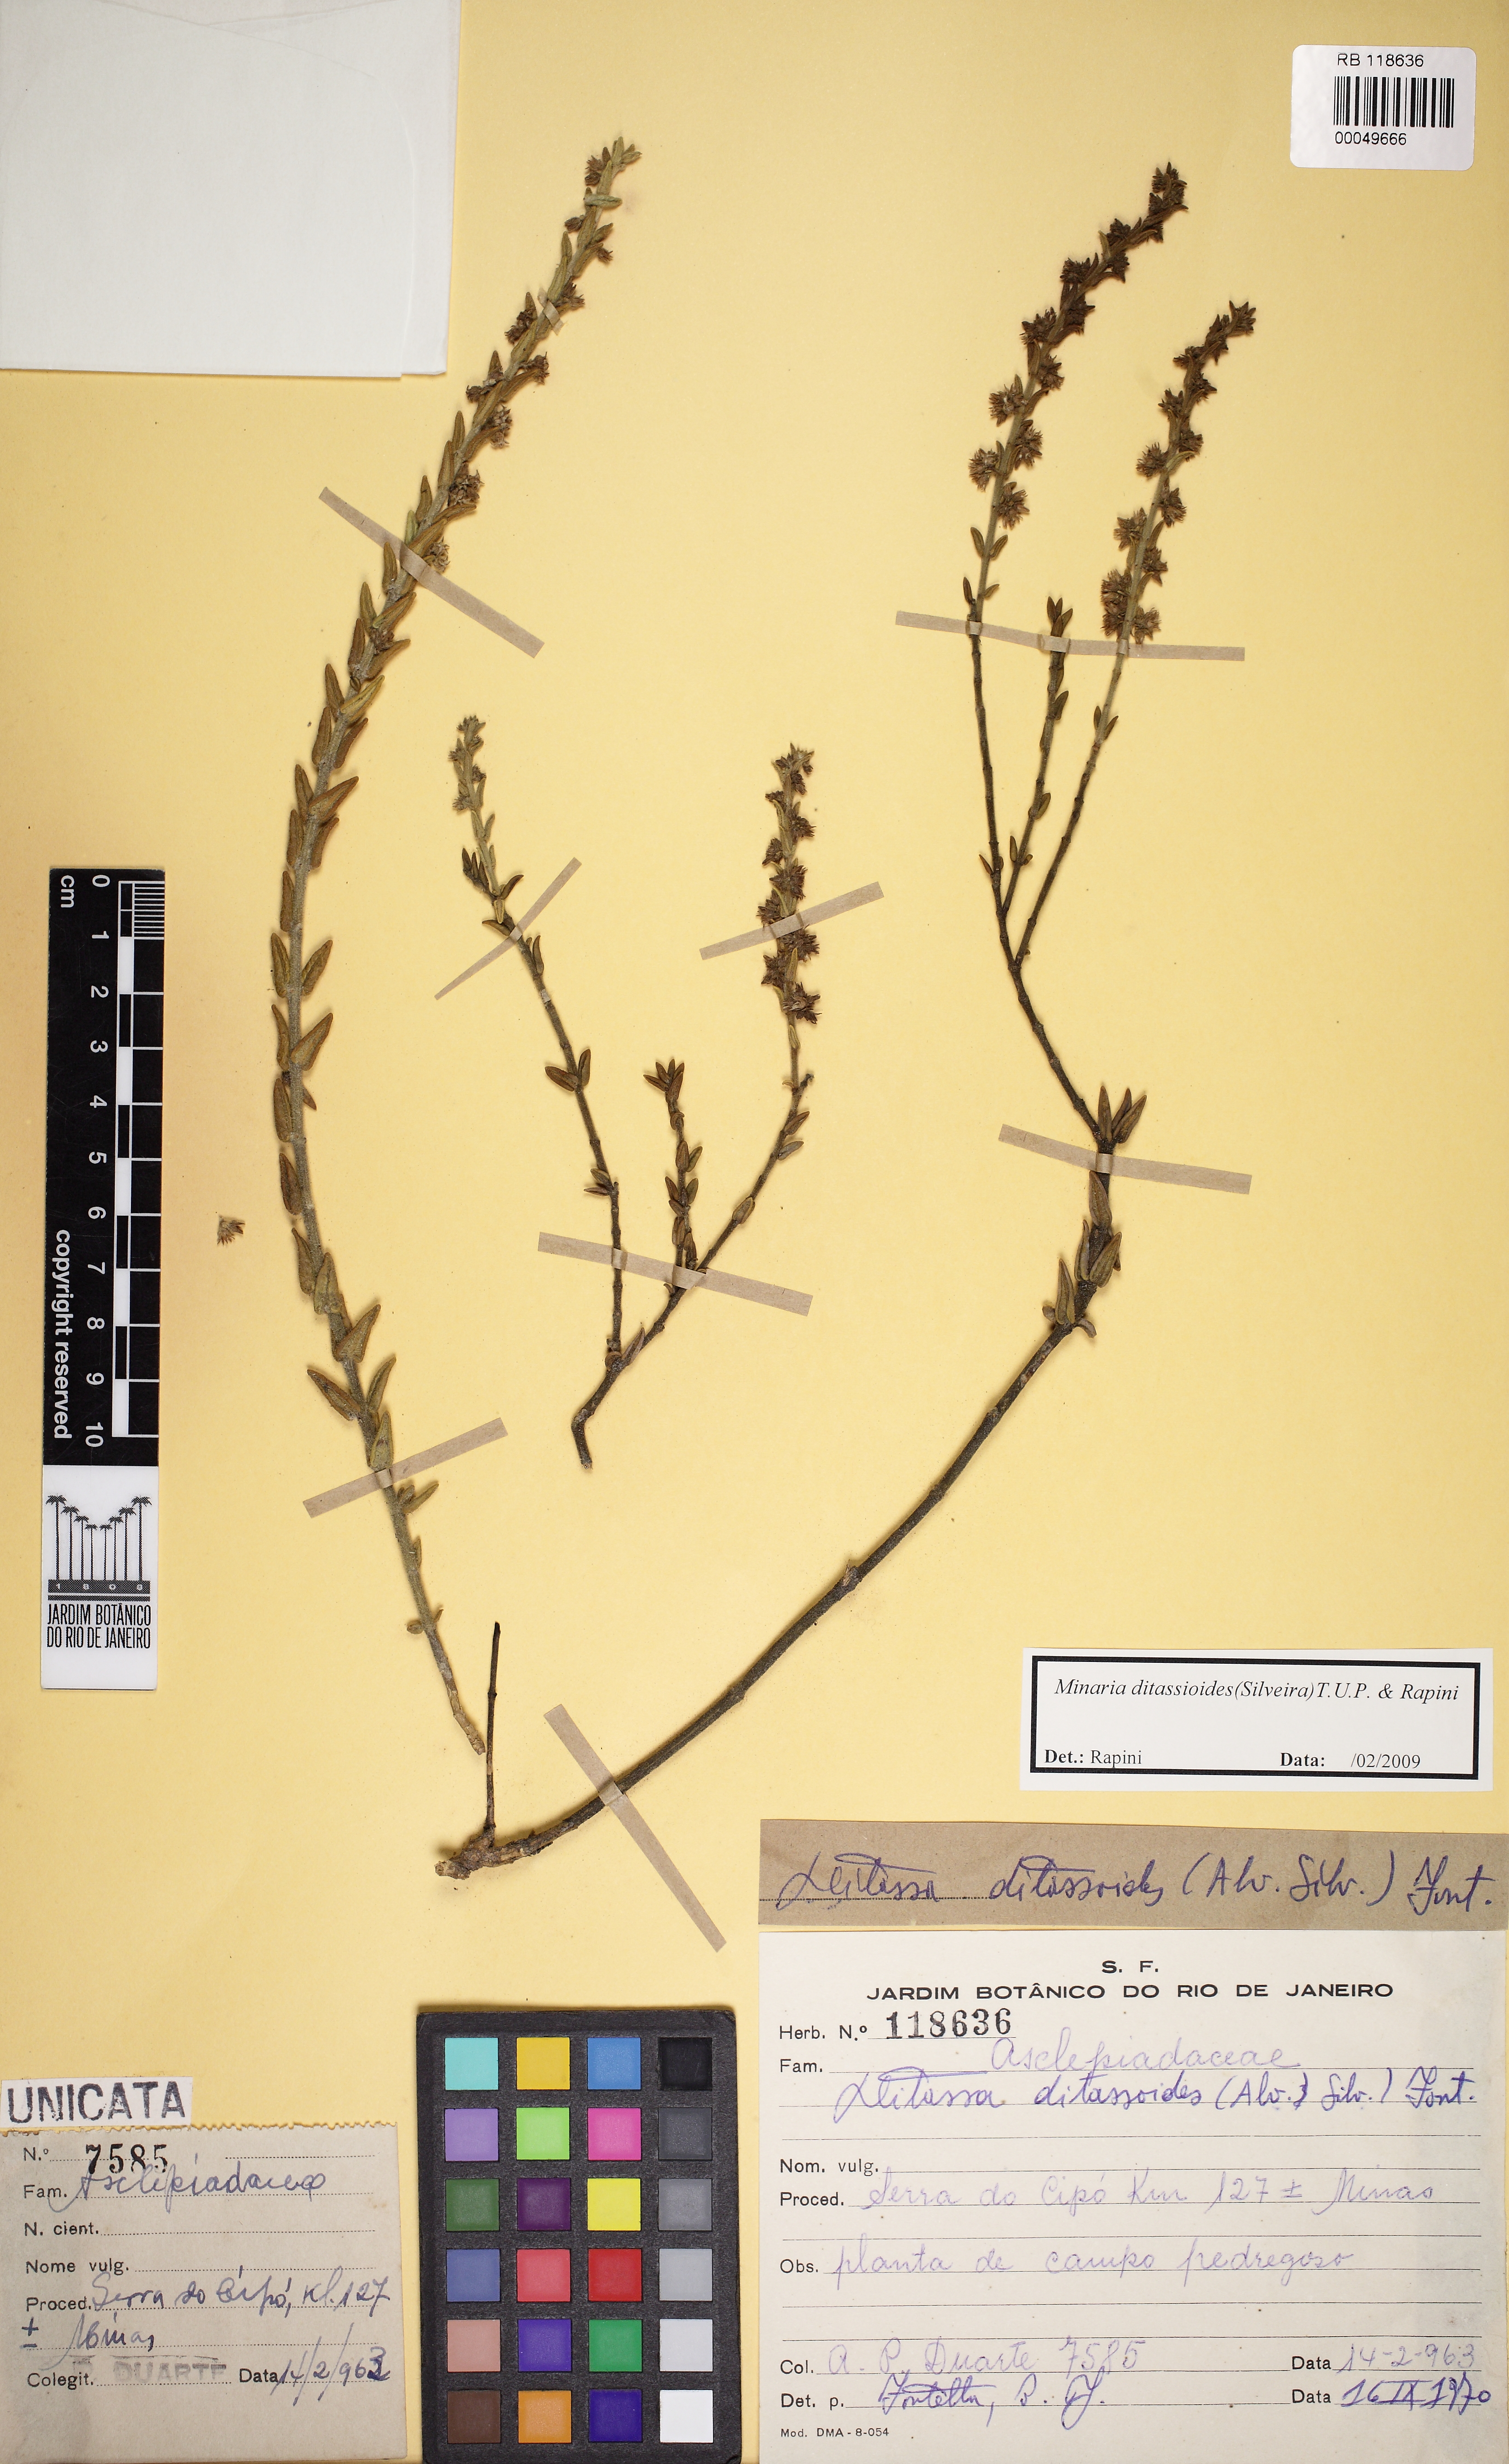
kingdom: Plantae
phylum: Tracheophyta
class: Magnoliopsida
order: Gentianales
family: Apocynaceae
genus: Minaria
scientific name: Minaria ditassoides
